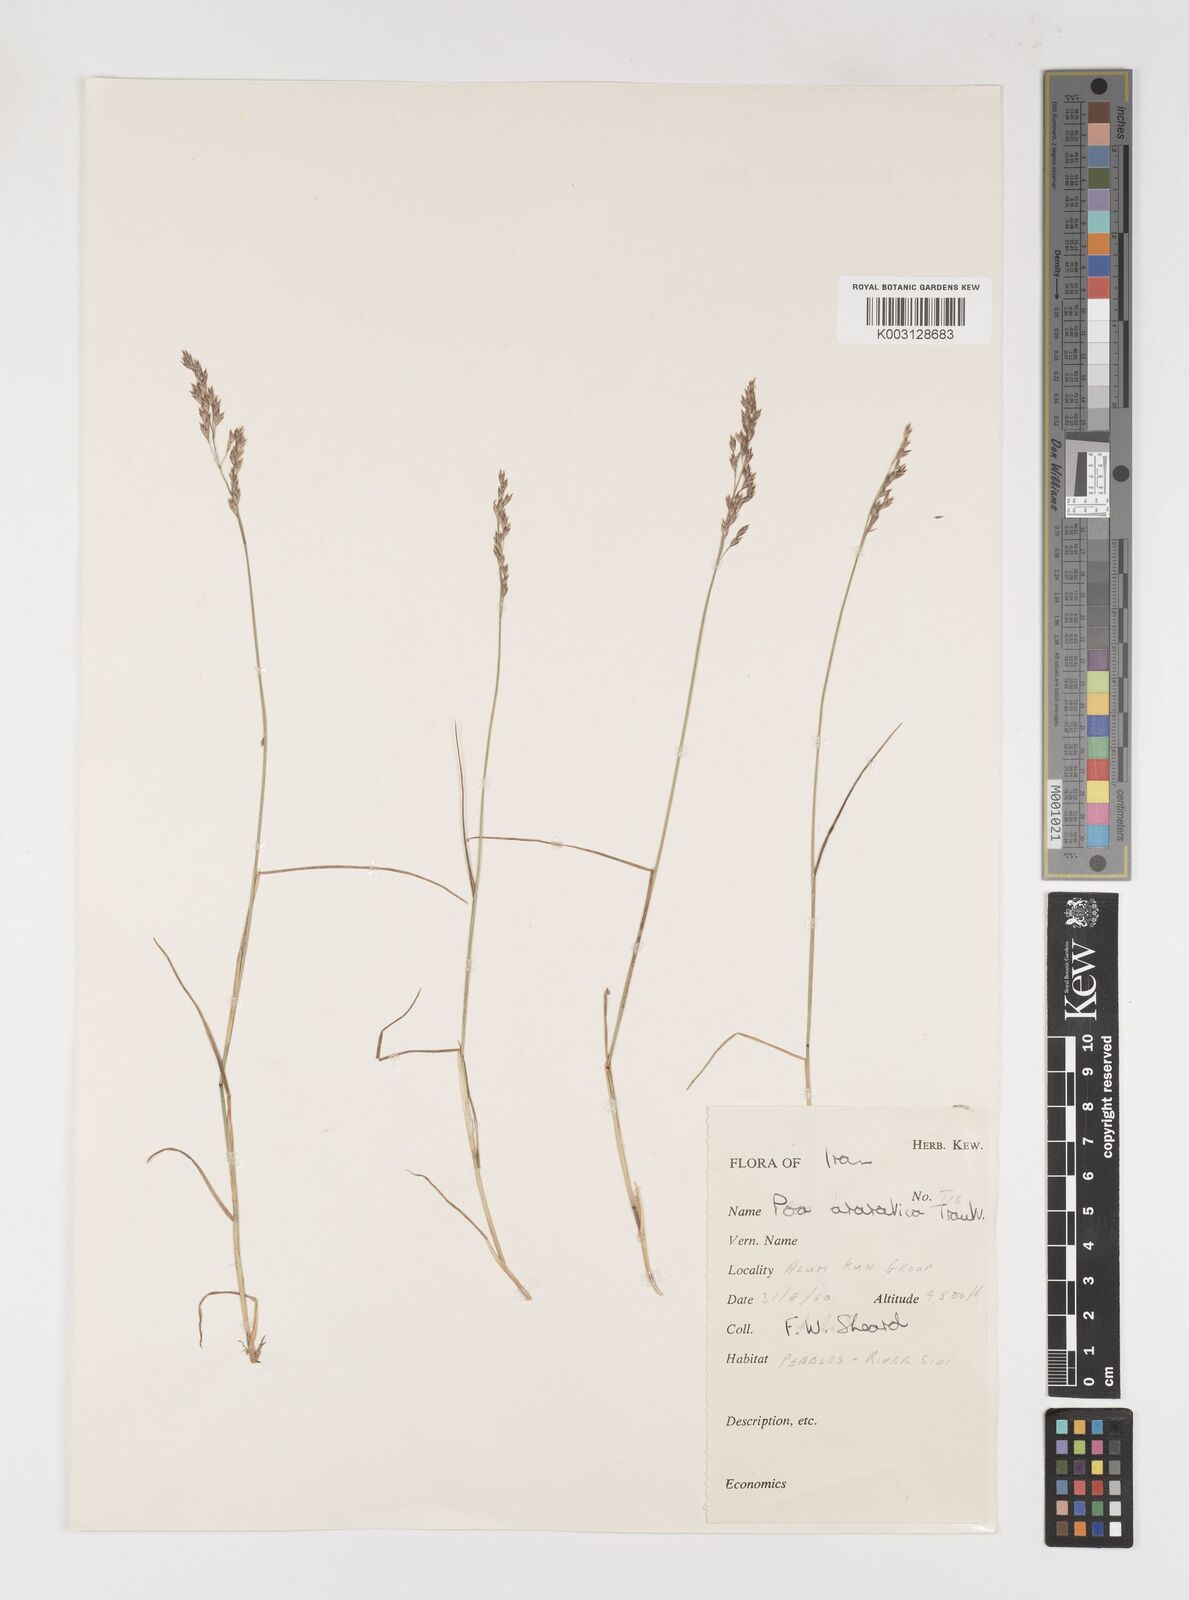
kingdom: Plantae
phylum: Tracheophyta
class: Liliopsida
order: Poales
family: Poaceae
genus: Poa
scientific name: Poa araratica
